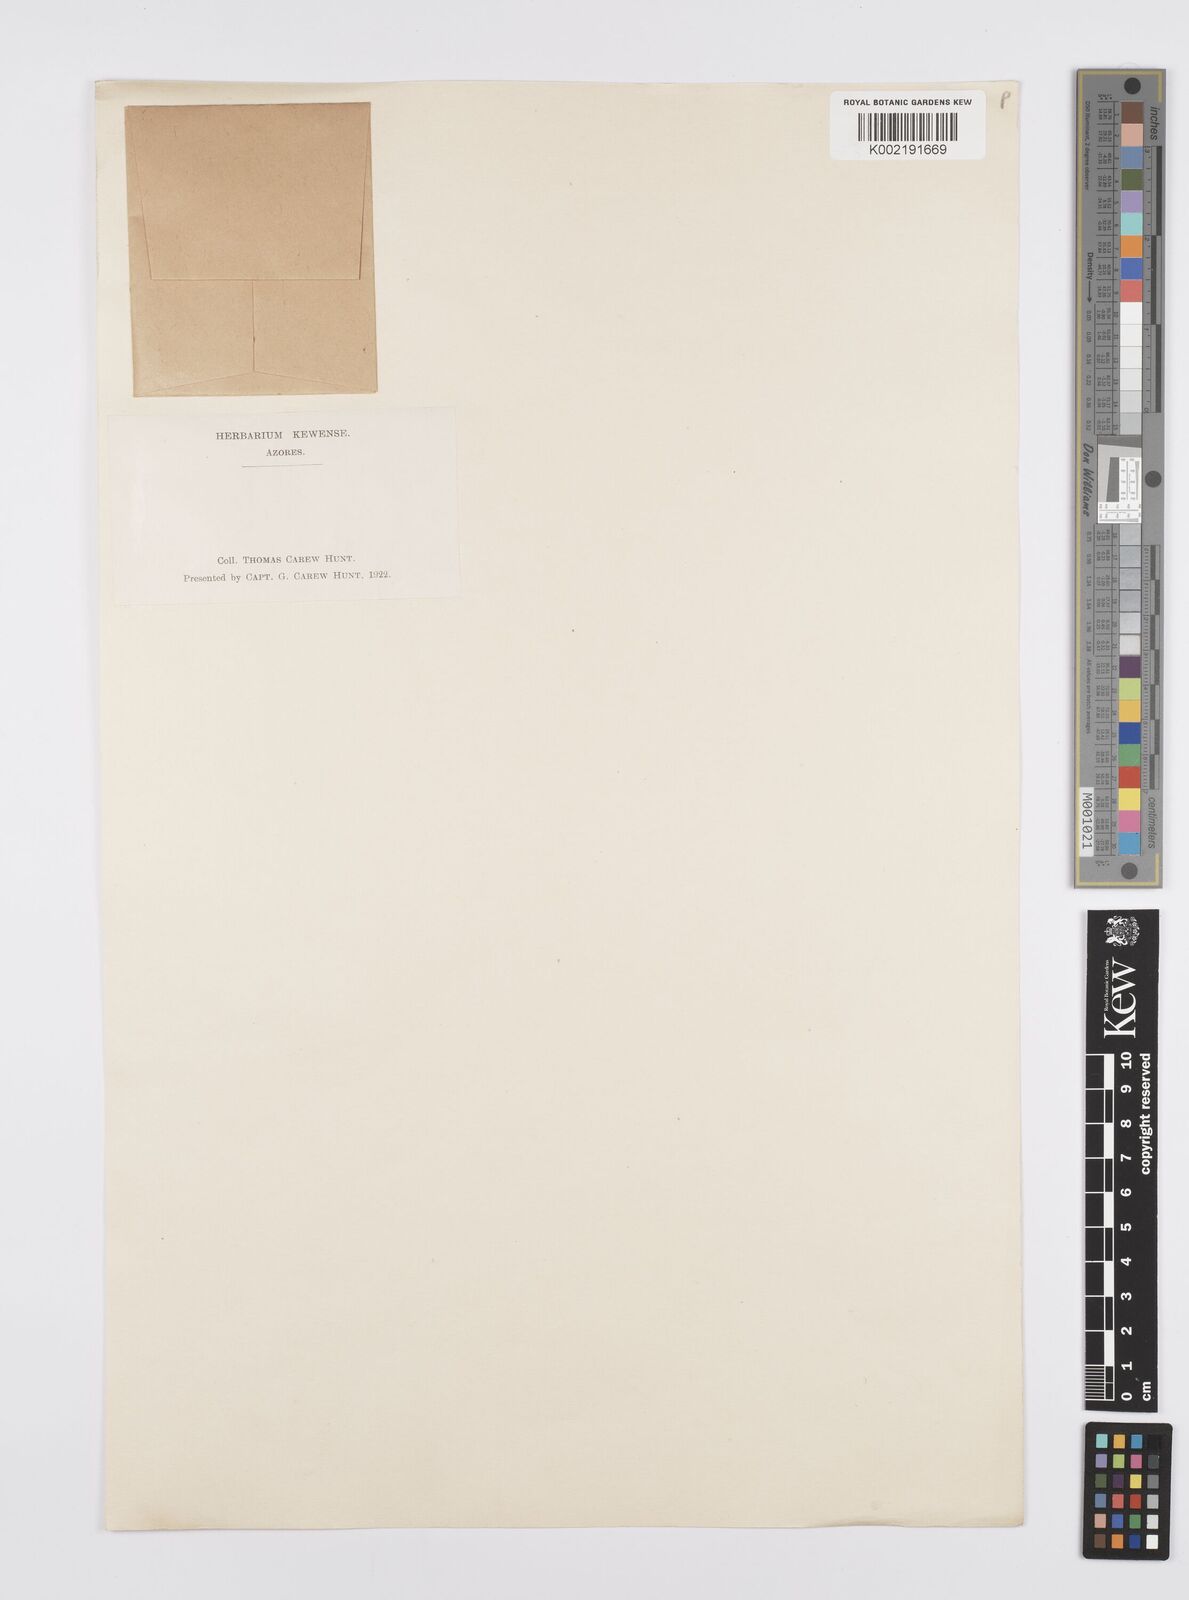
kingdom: Plantae
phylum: Tracheophyta
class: Liliopsida
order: Poales
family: Poaceae
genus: Catapodium
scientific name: Catapodium marinum
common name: Sea fern-grass
